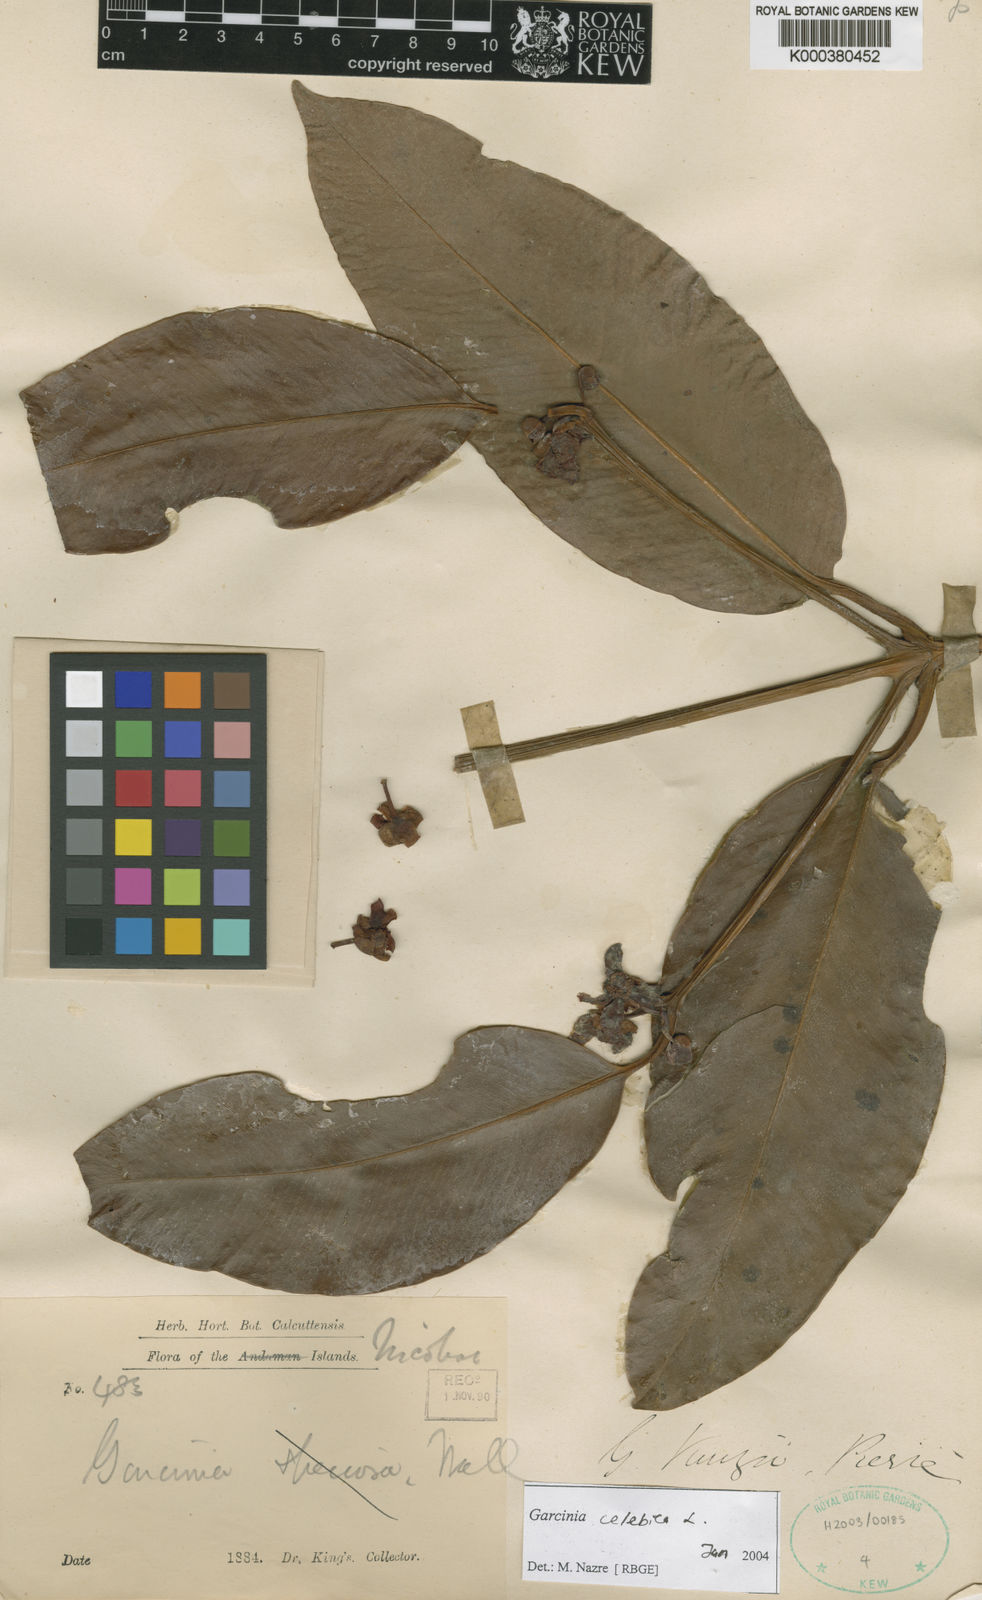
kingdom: Plantae
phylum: Tracheophyta
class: Magnoliopsida
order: Malpighiales
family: Clusiaceae
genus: Garcinia
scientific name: Garcinia celebica
